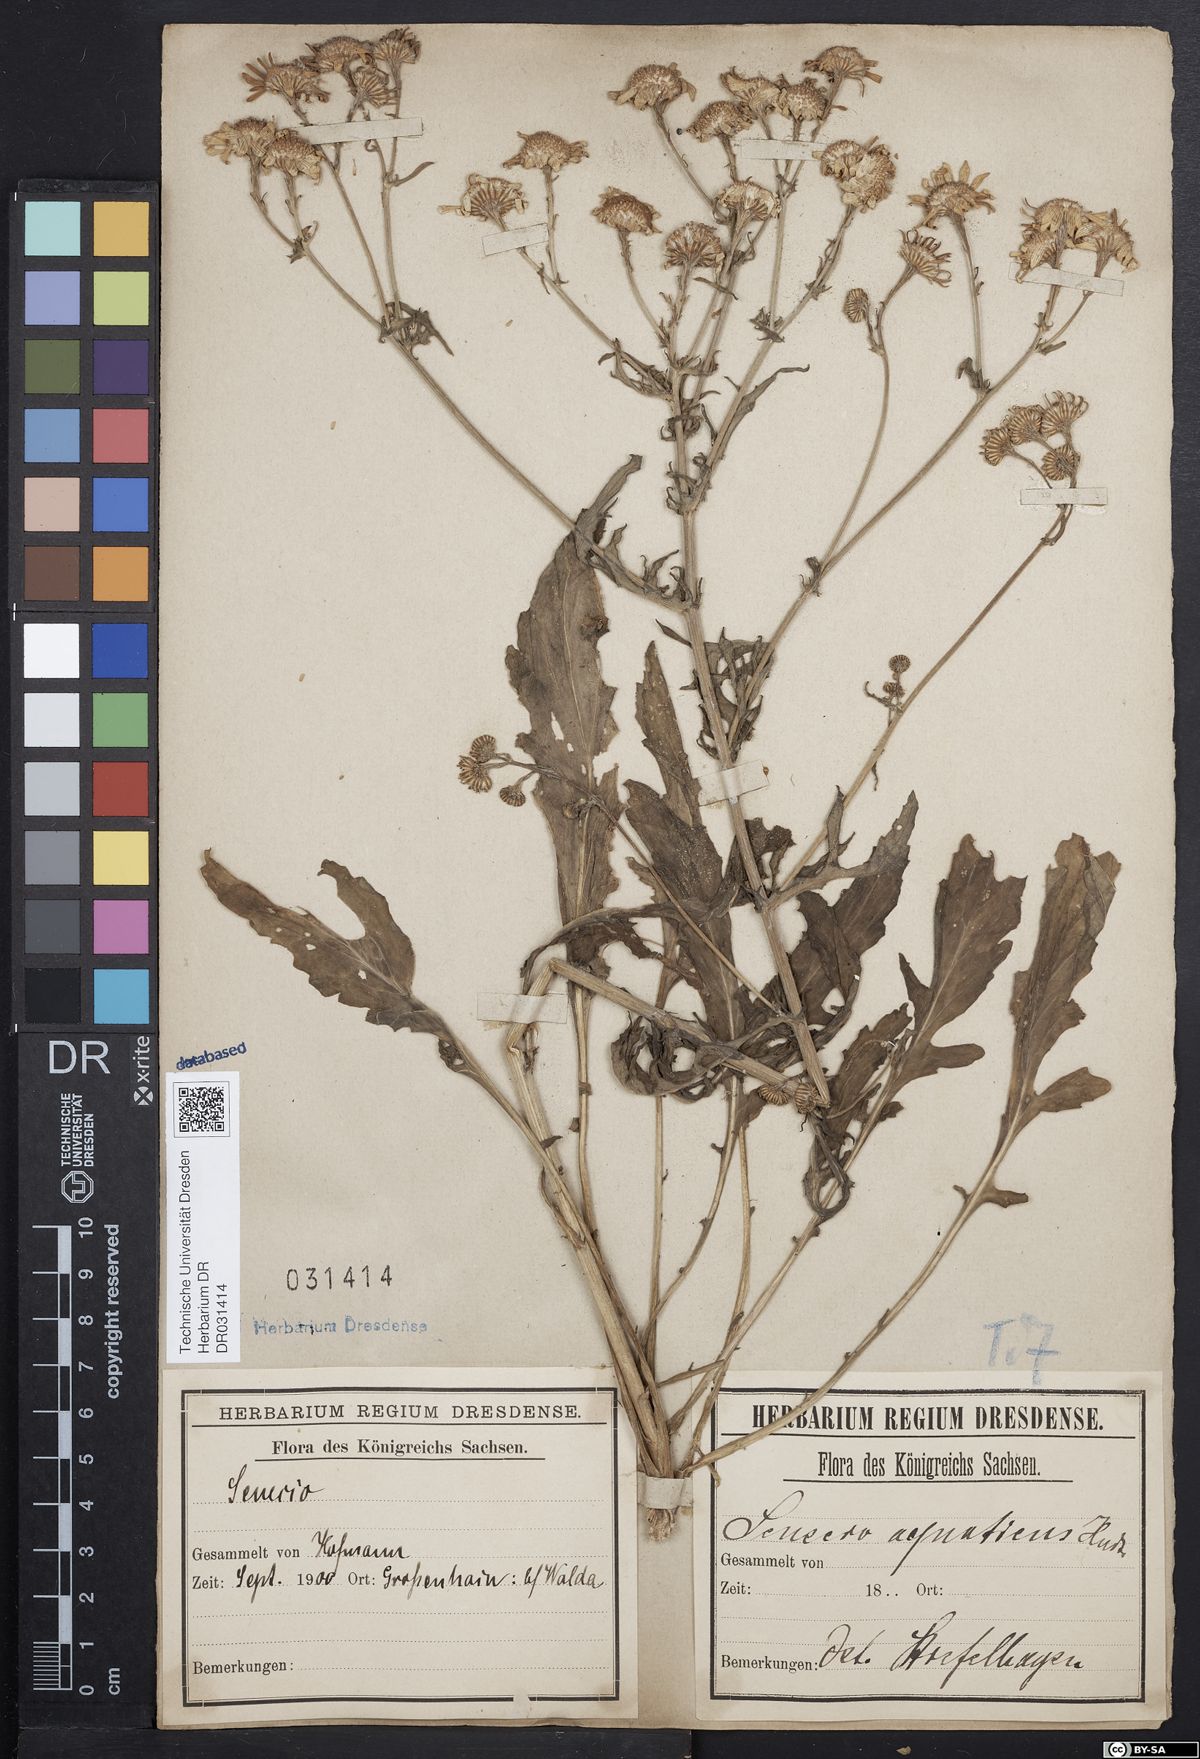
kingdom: Plantae
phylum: Tracheophyta
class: Magnoliopsida
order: Asterales
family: Asteraceae
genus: Jacobaea
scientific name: Jacobaea aquatica
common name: Water ragwort
